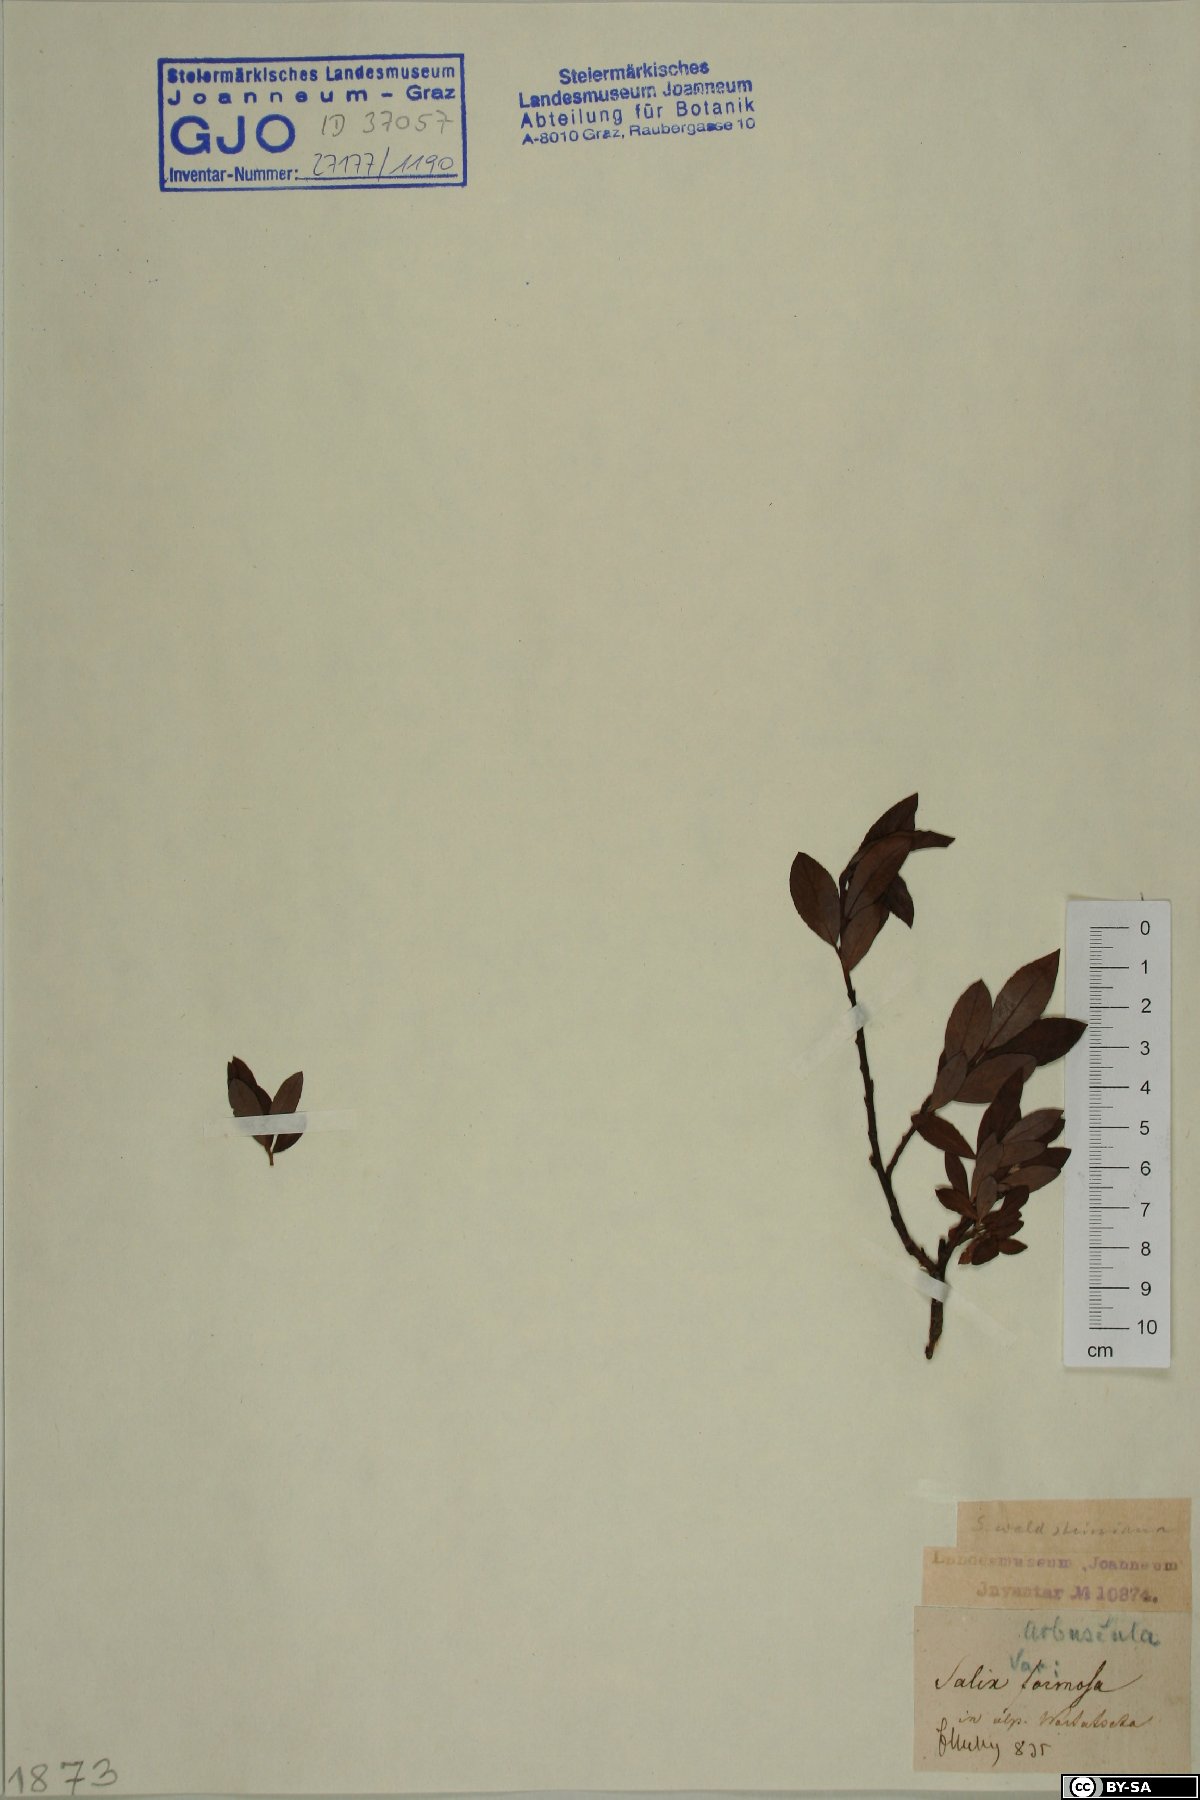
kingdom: Plantae
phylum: Tracheophyta
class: Magnoliopsida
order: Malpighiales
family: Salicaceae
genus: Salix
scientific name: Salix waldsteiniana
